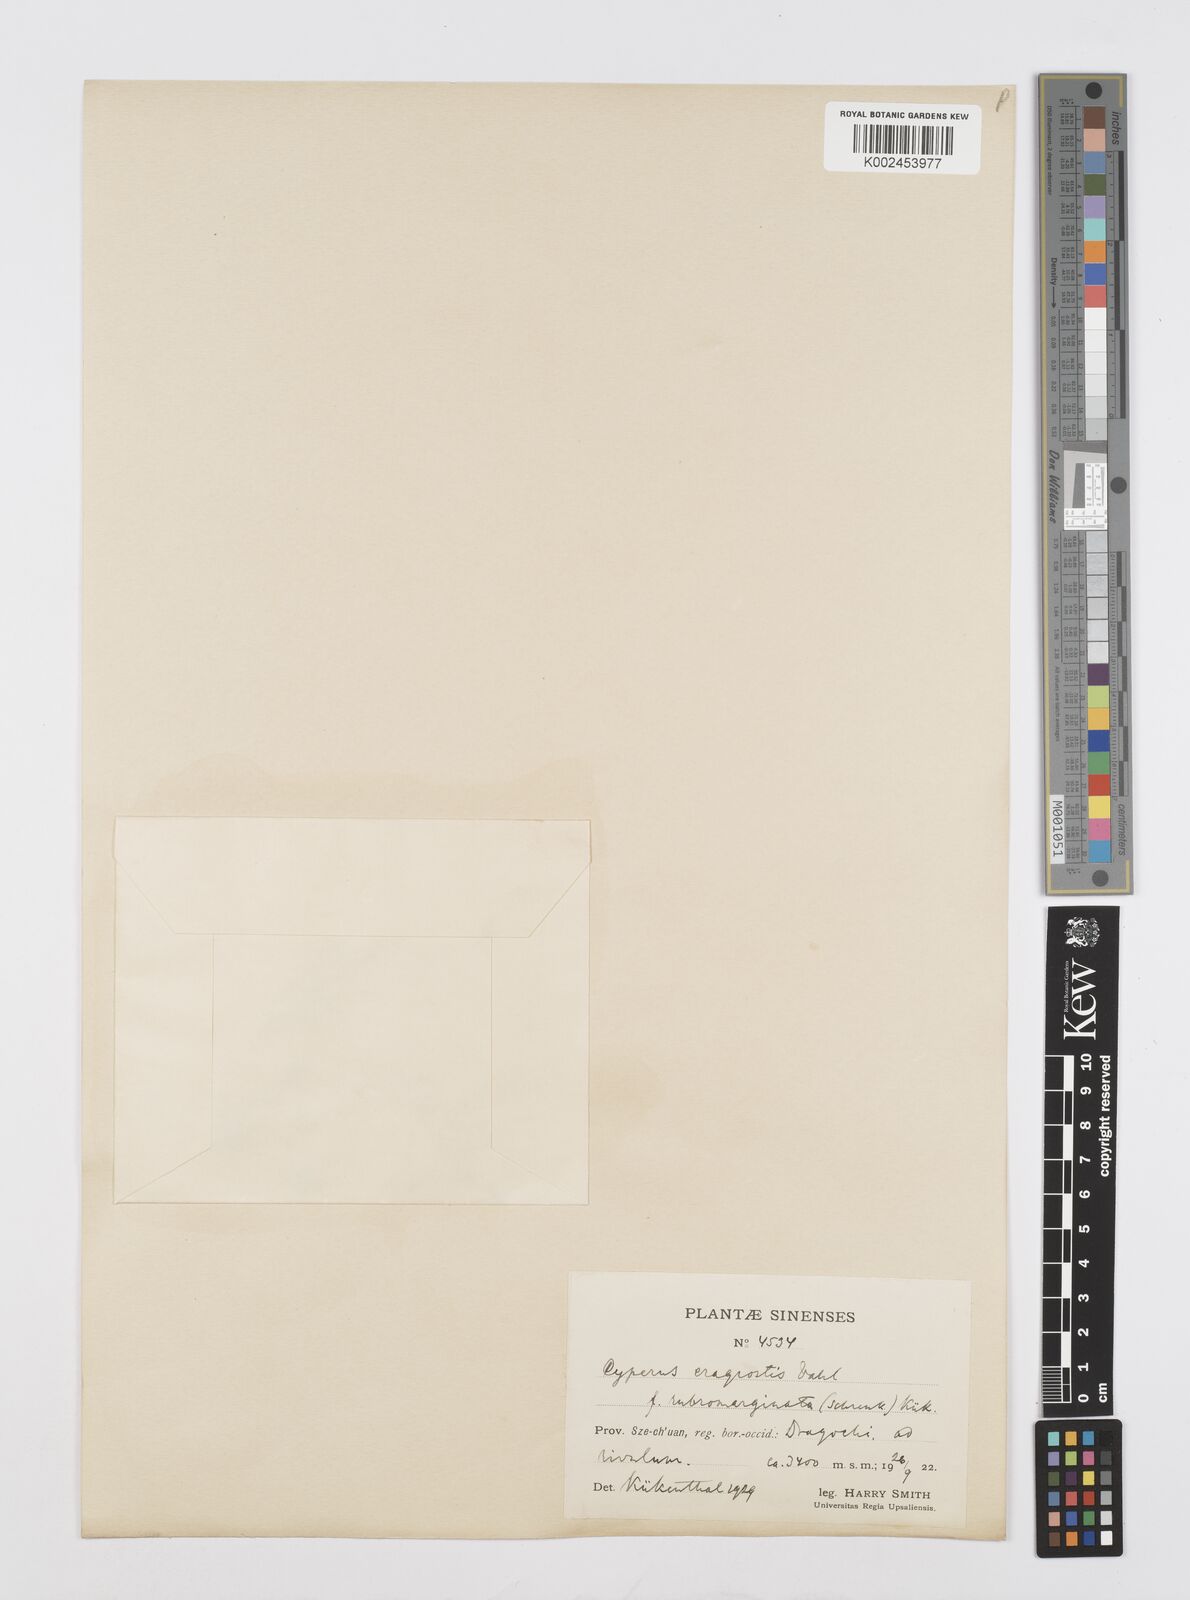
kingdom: Plantae
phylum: Tracheophyta
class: Liliopsida
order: Poales
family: Cyperaceae
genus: Cyperus
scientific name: Cyperus sanguinolentus
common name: Purpleglume flatsedge
